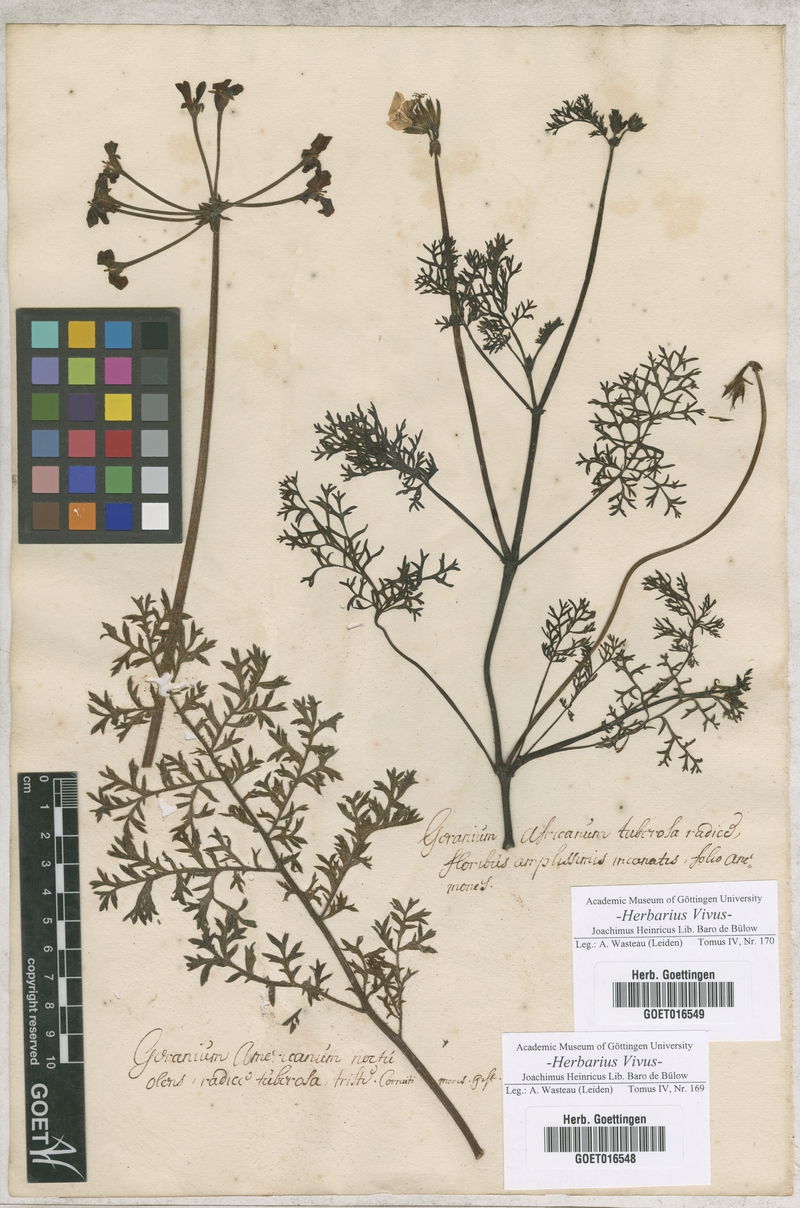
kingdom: Plantae
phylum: Tracheophyta
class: Magnoliopsida
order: Geraniales
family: Geraniaceae
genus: Pelargonium
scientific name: Pelargonium triste
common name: Night-scent pelargonium
